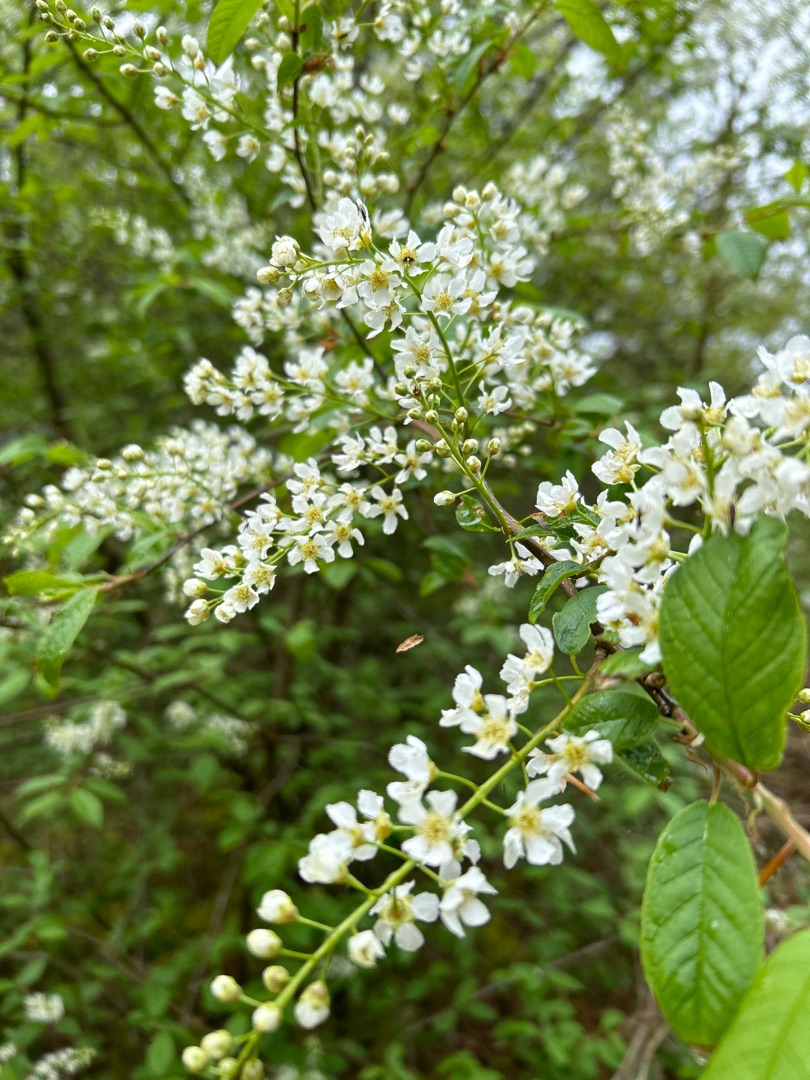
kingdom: Plantae
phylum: Tracheophyta
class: Magnoliopsida
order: Rosales
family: Rosaceae
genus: Prunus
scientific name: Prunus padus
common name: Almindelig hæg
